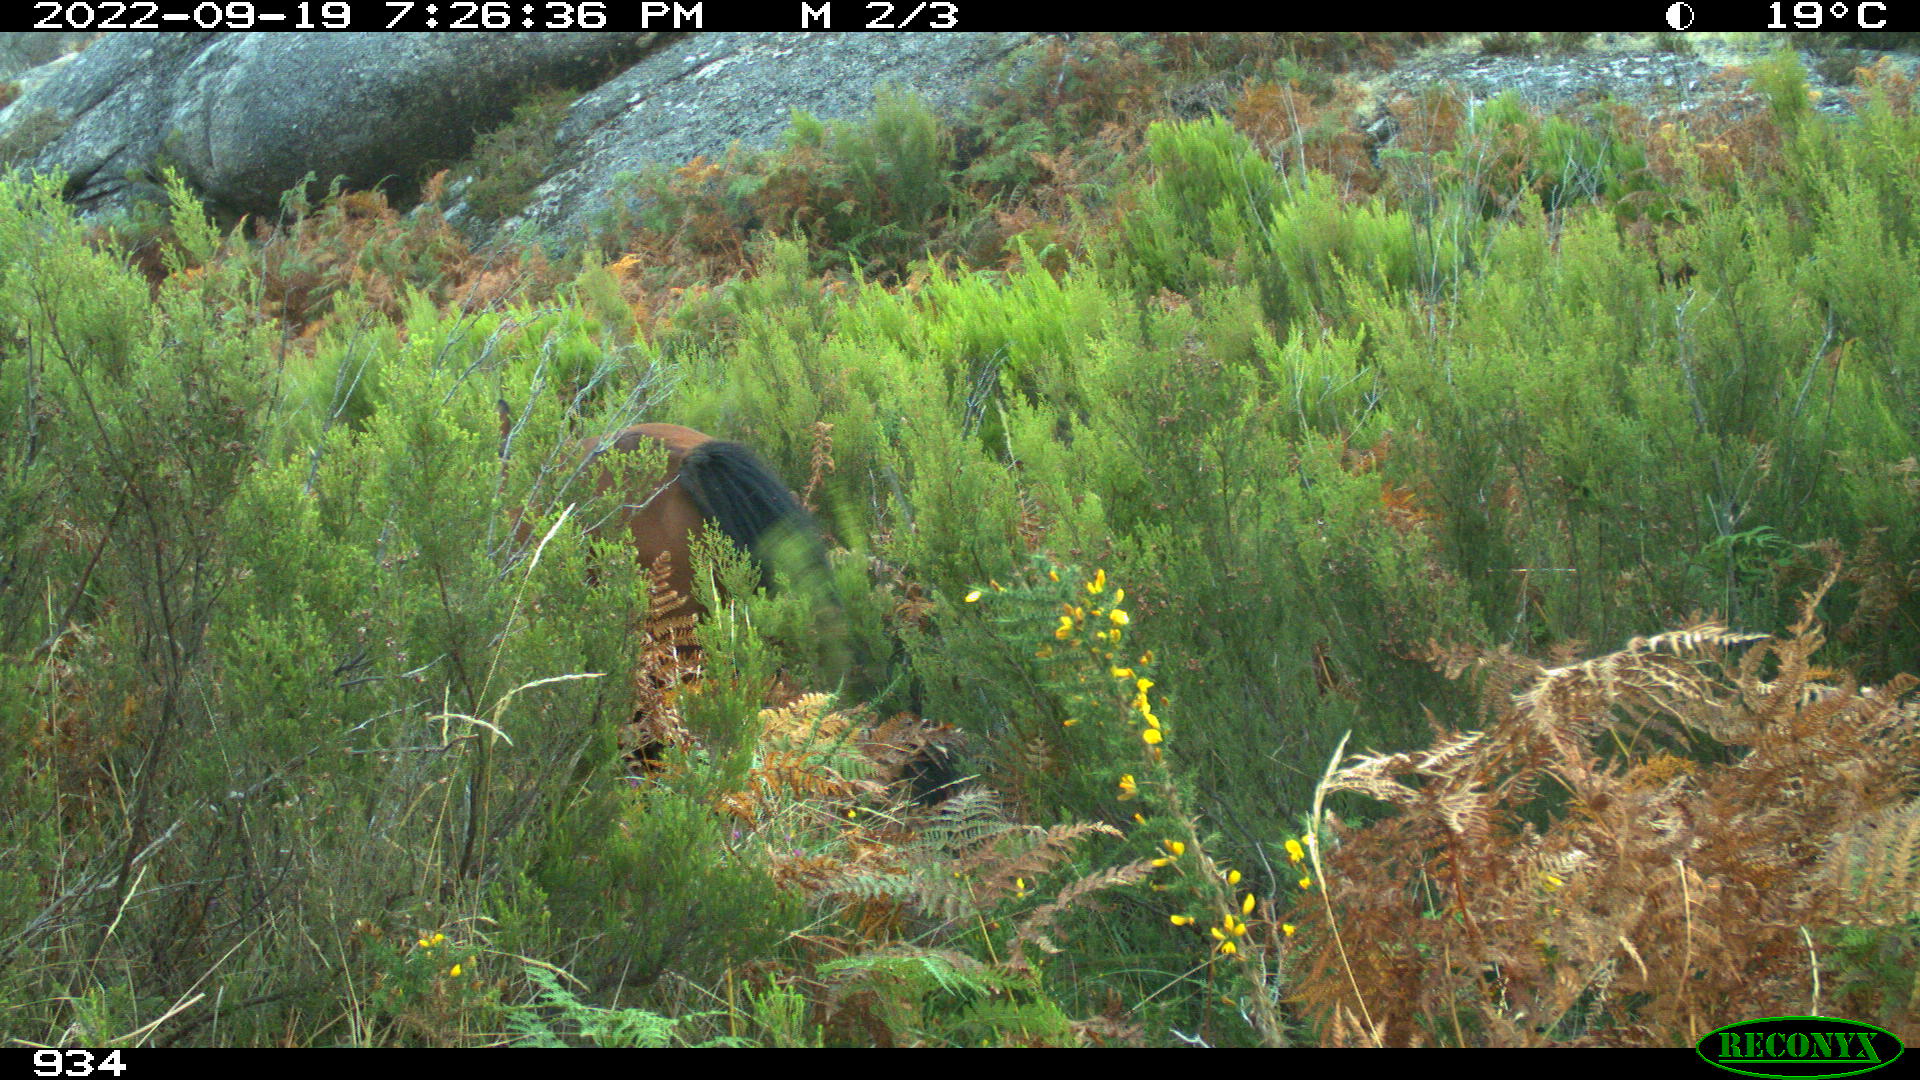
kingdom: Animalia
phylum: Chordata
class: Mammalia
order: Perissodactyla
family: Equidae
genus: Equus
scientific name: Equus caballus
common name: Horse
